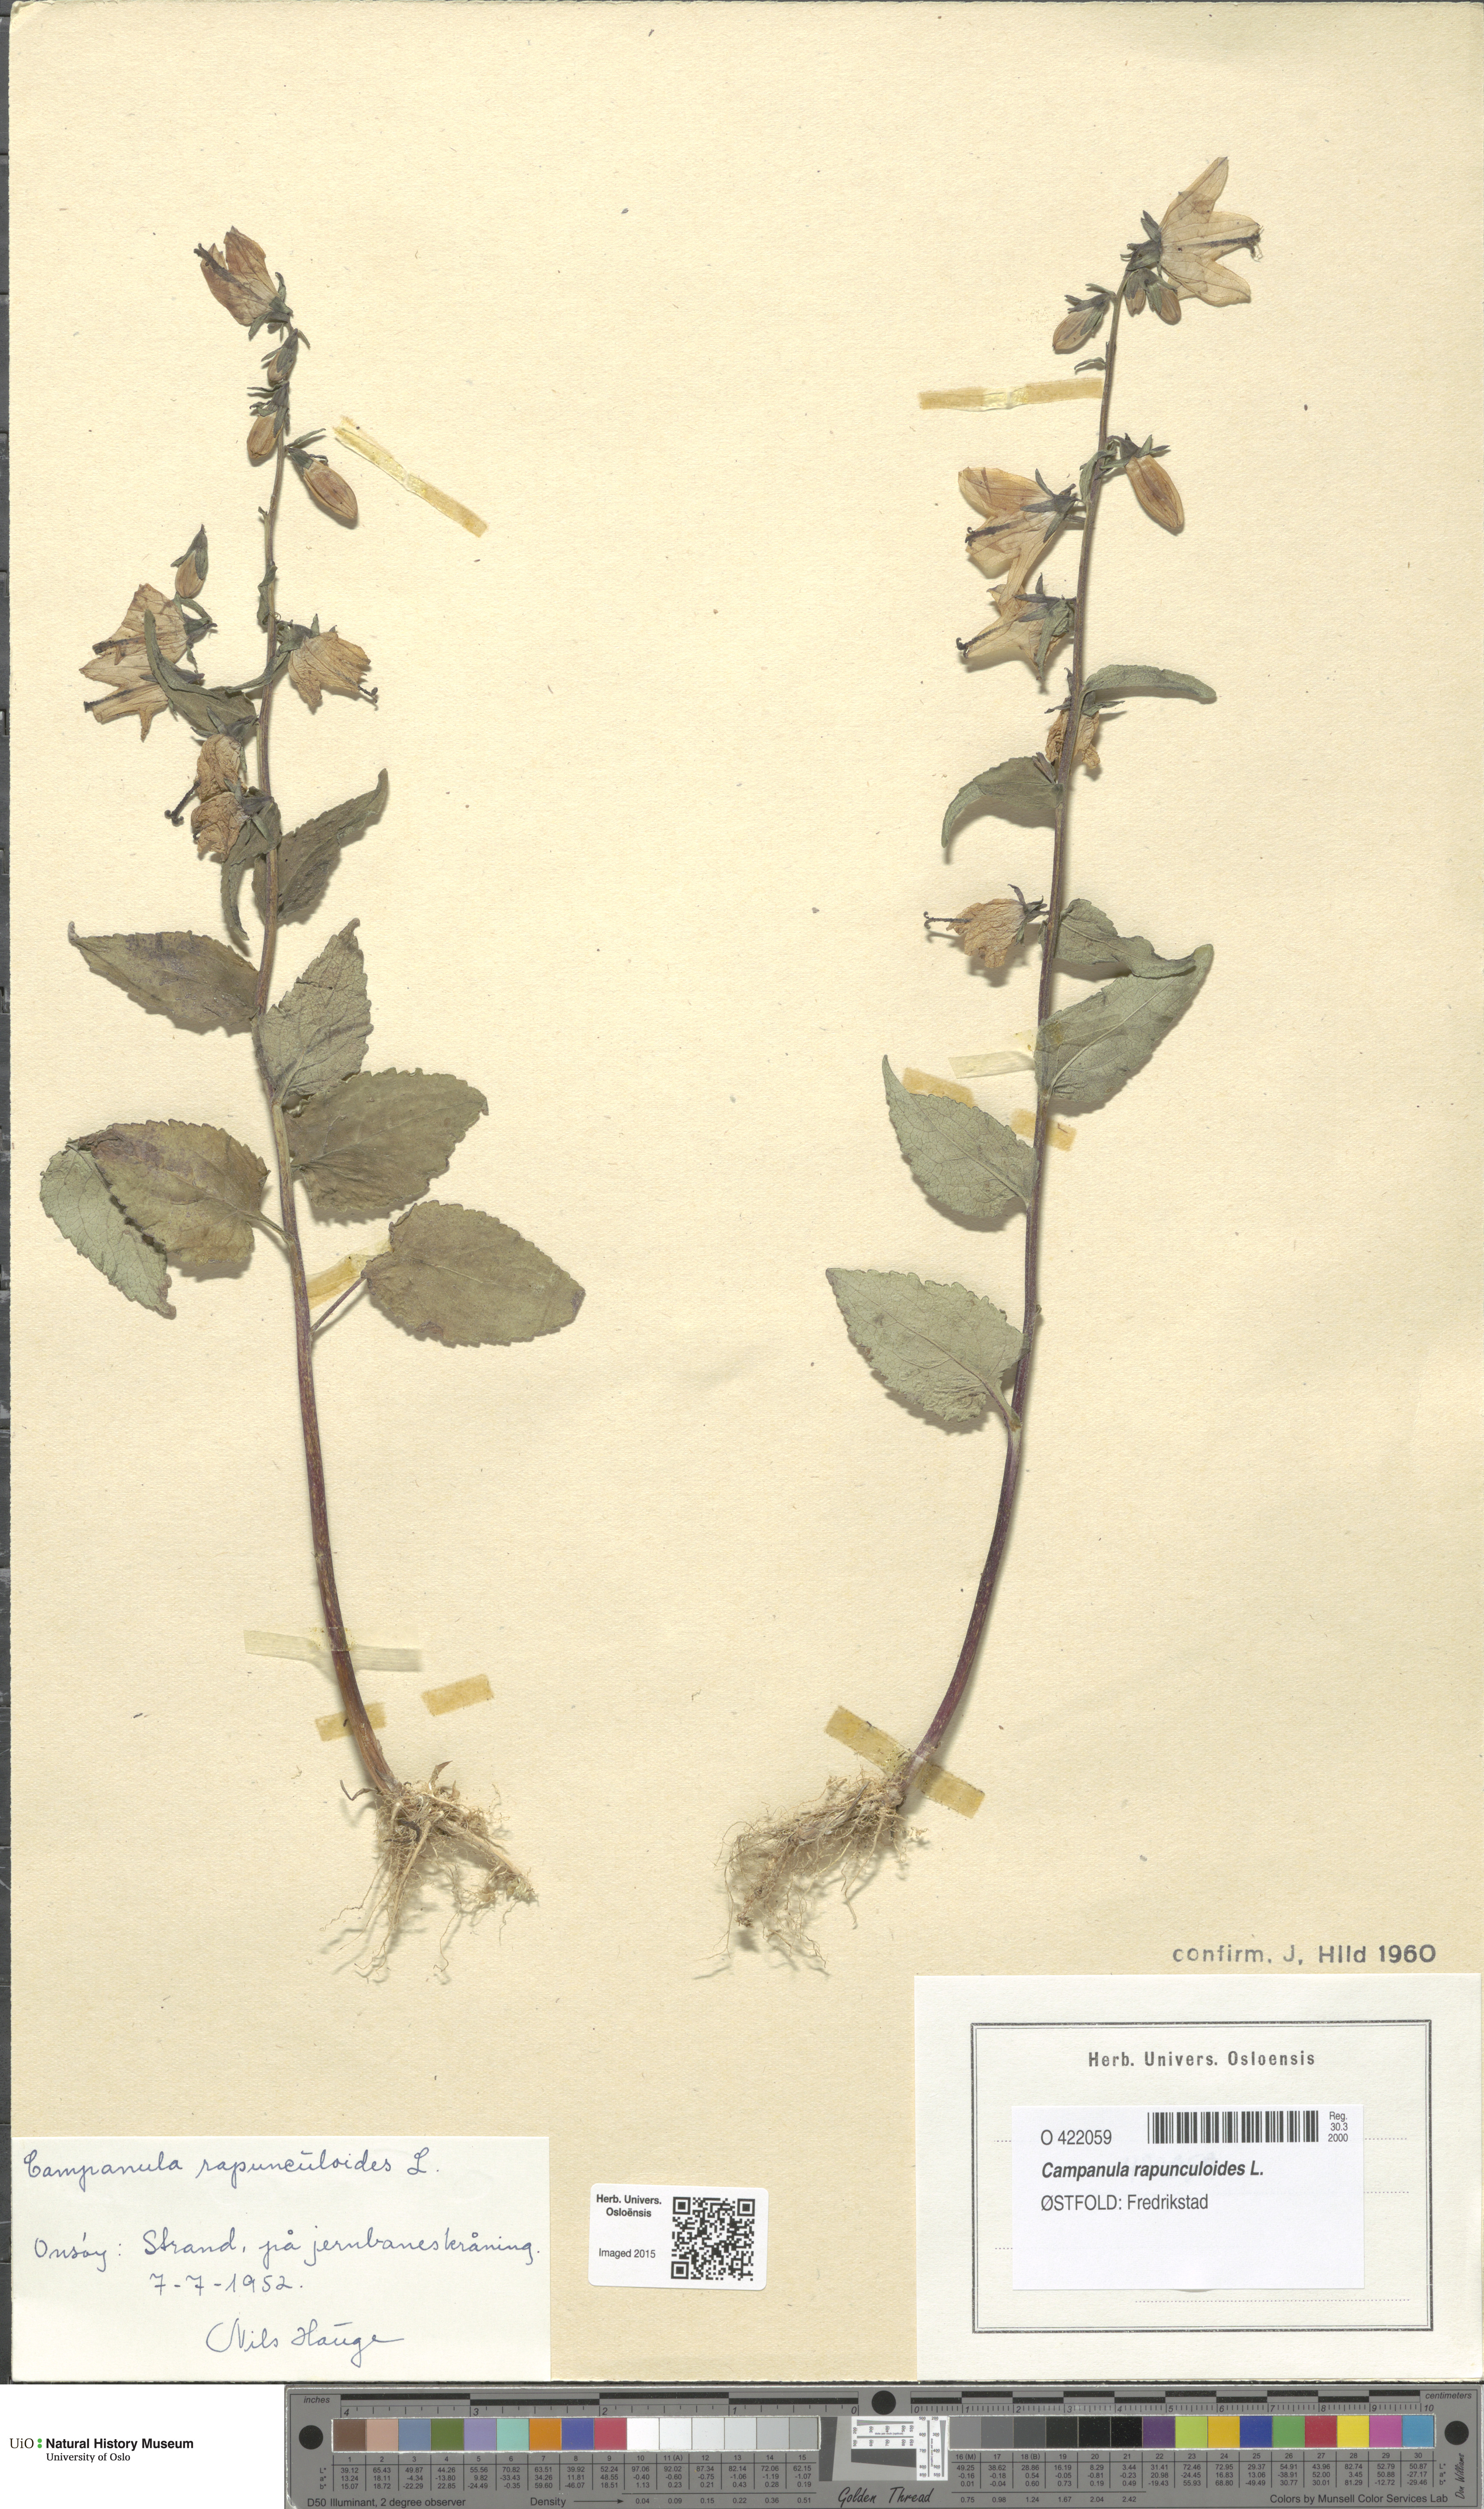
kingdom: Plantae
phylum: Tracheophyta
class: Magnoliopsida
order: Asterales
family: Campanulaceae
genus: Campanula
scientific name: Campanula rapunculoides
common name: Creeping bellflower
